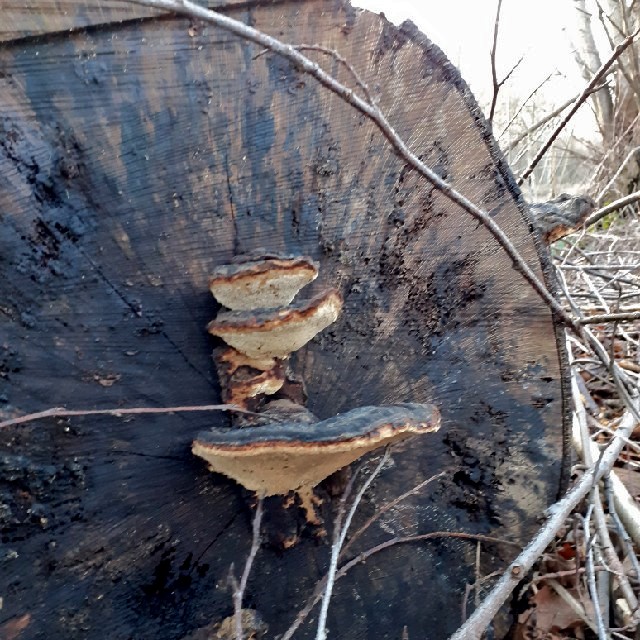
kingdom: Fungi
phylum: Basidiomycota
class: Agaricomycetes
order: Polyporales
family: Ischnodermataceae
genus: Ischnoderma
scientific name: Ischnoderma resinosum
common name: løv-tjæreporesvamp
